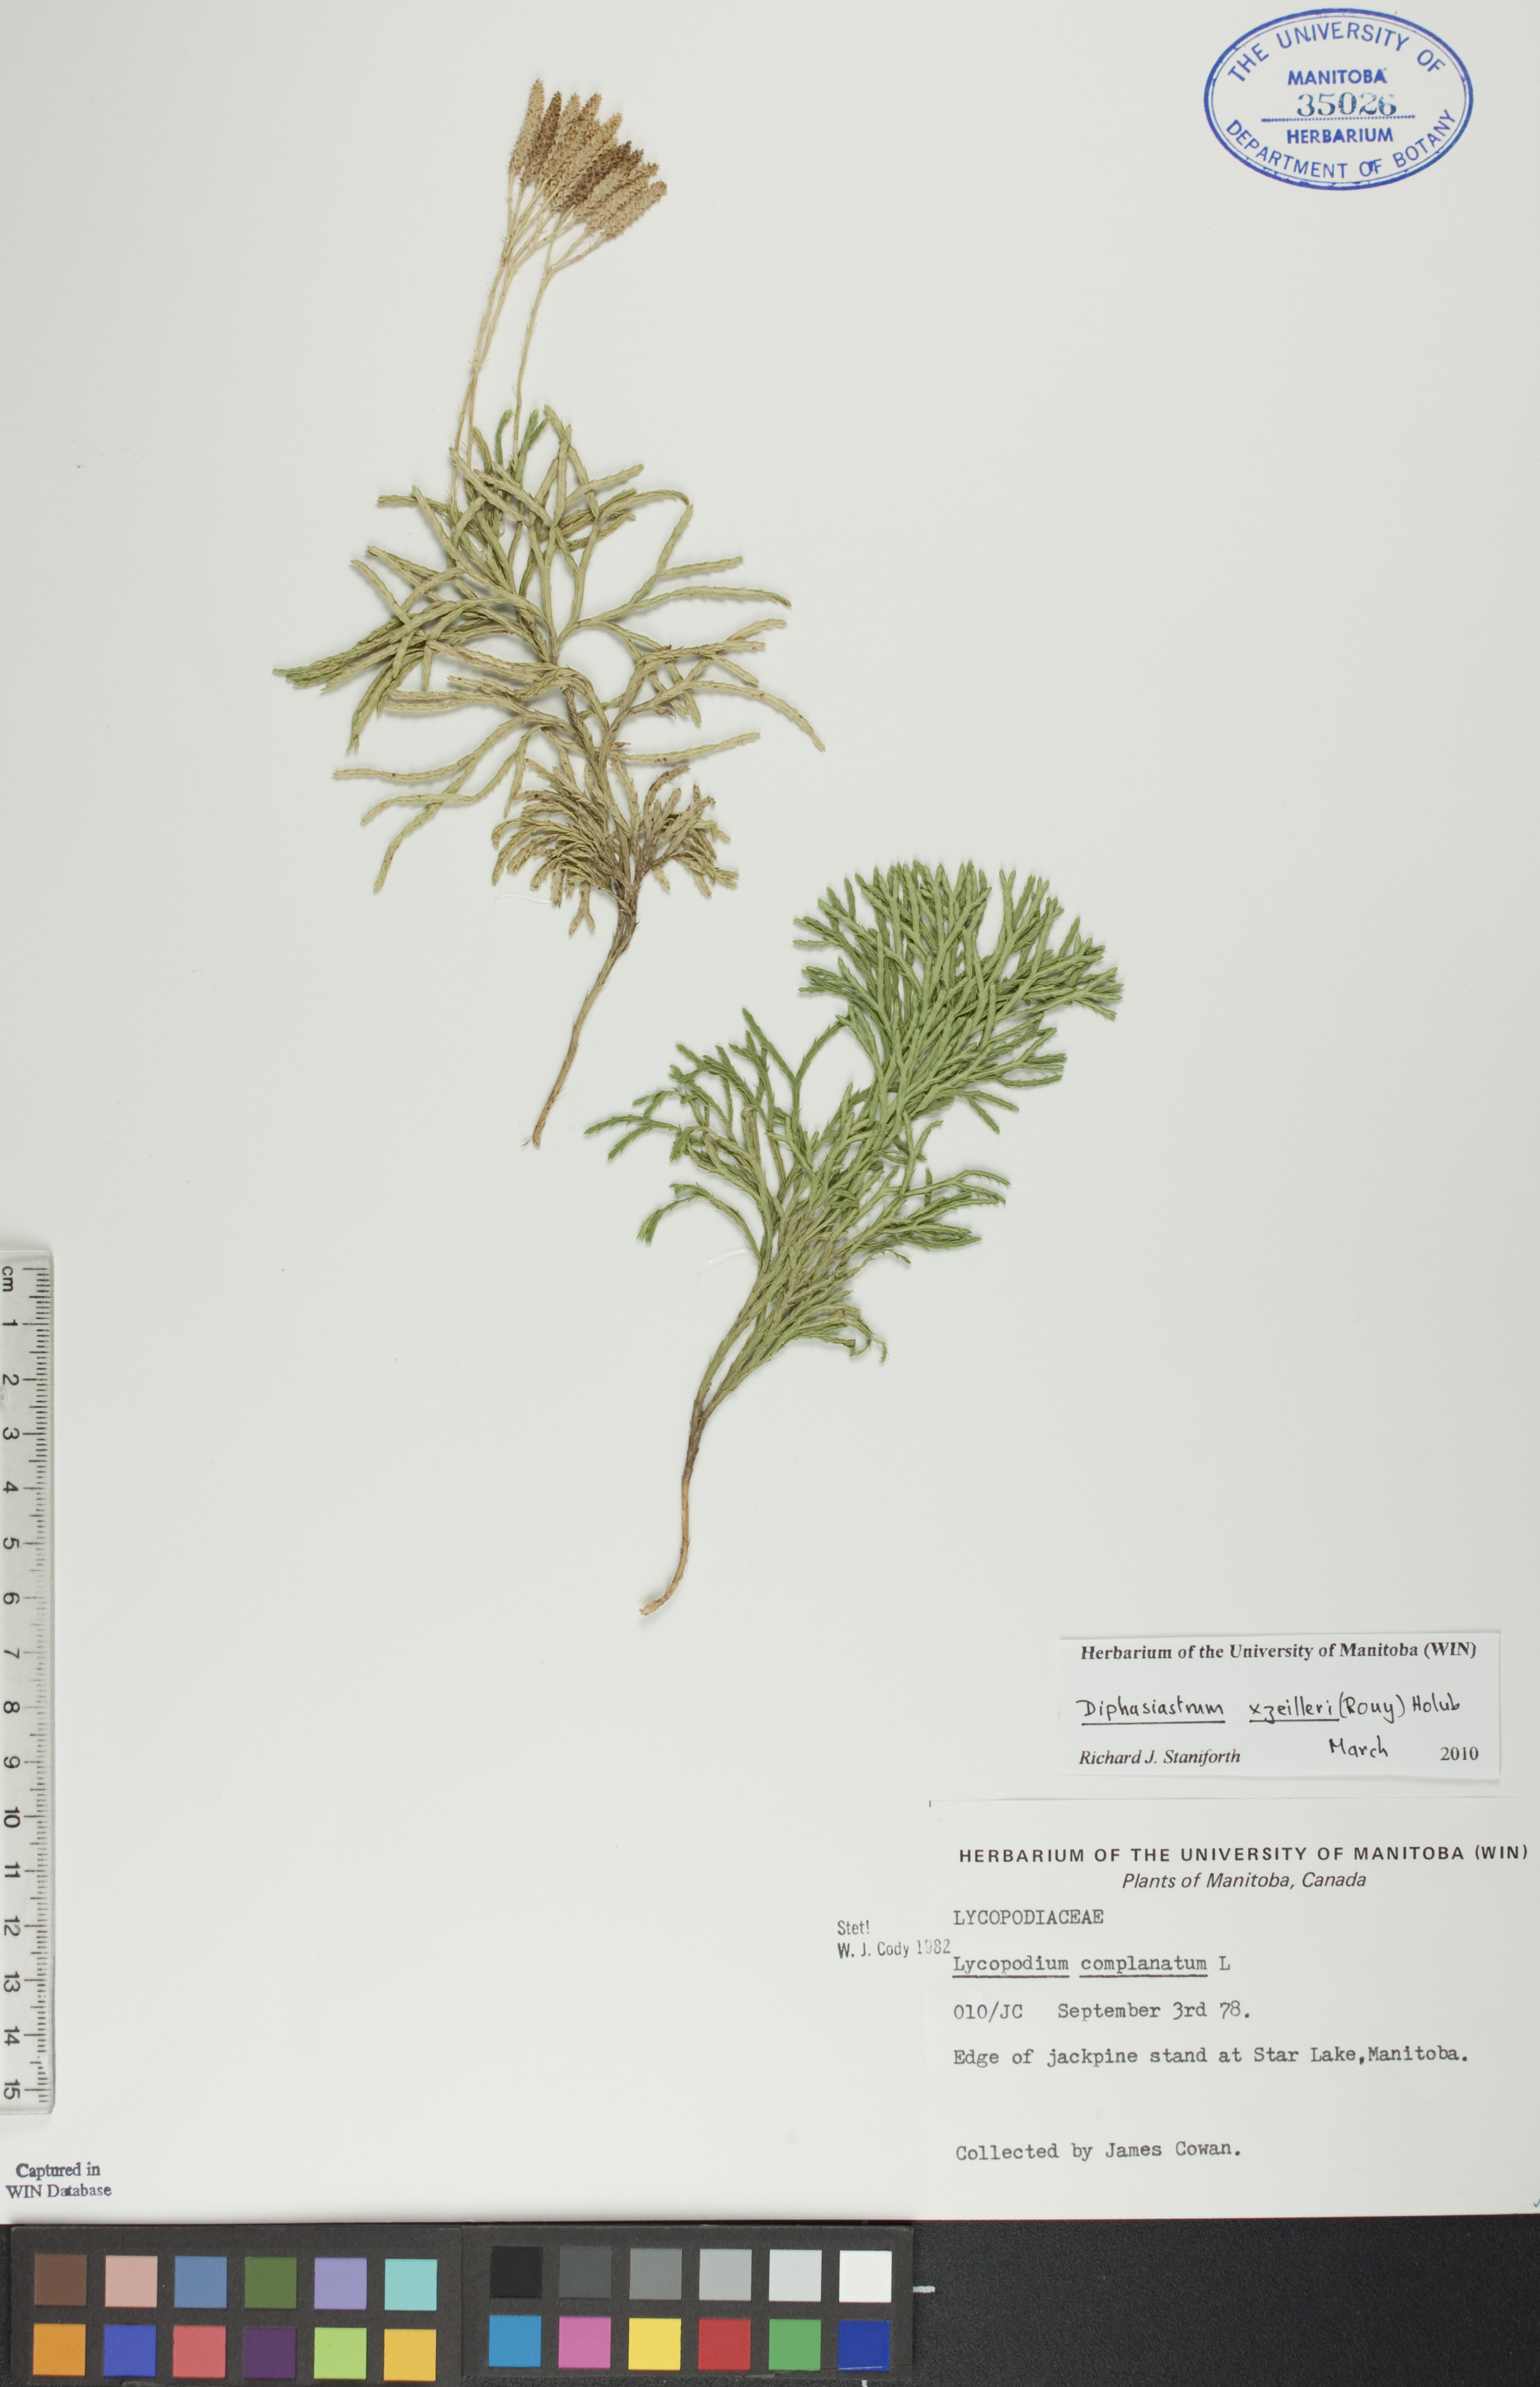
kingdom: Plantae
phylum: Tracheophyta
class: Lycopodiopsida
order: Lycopodiales
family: Lycopodiaceae
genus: Diphasiastrum
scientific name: Diphasiastrum zeilleri
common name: Zeiller's clubmoss
